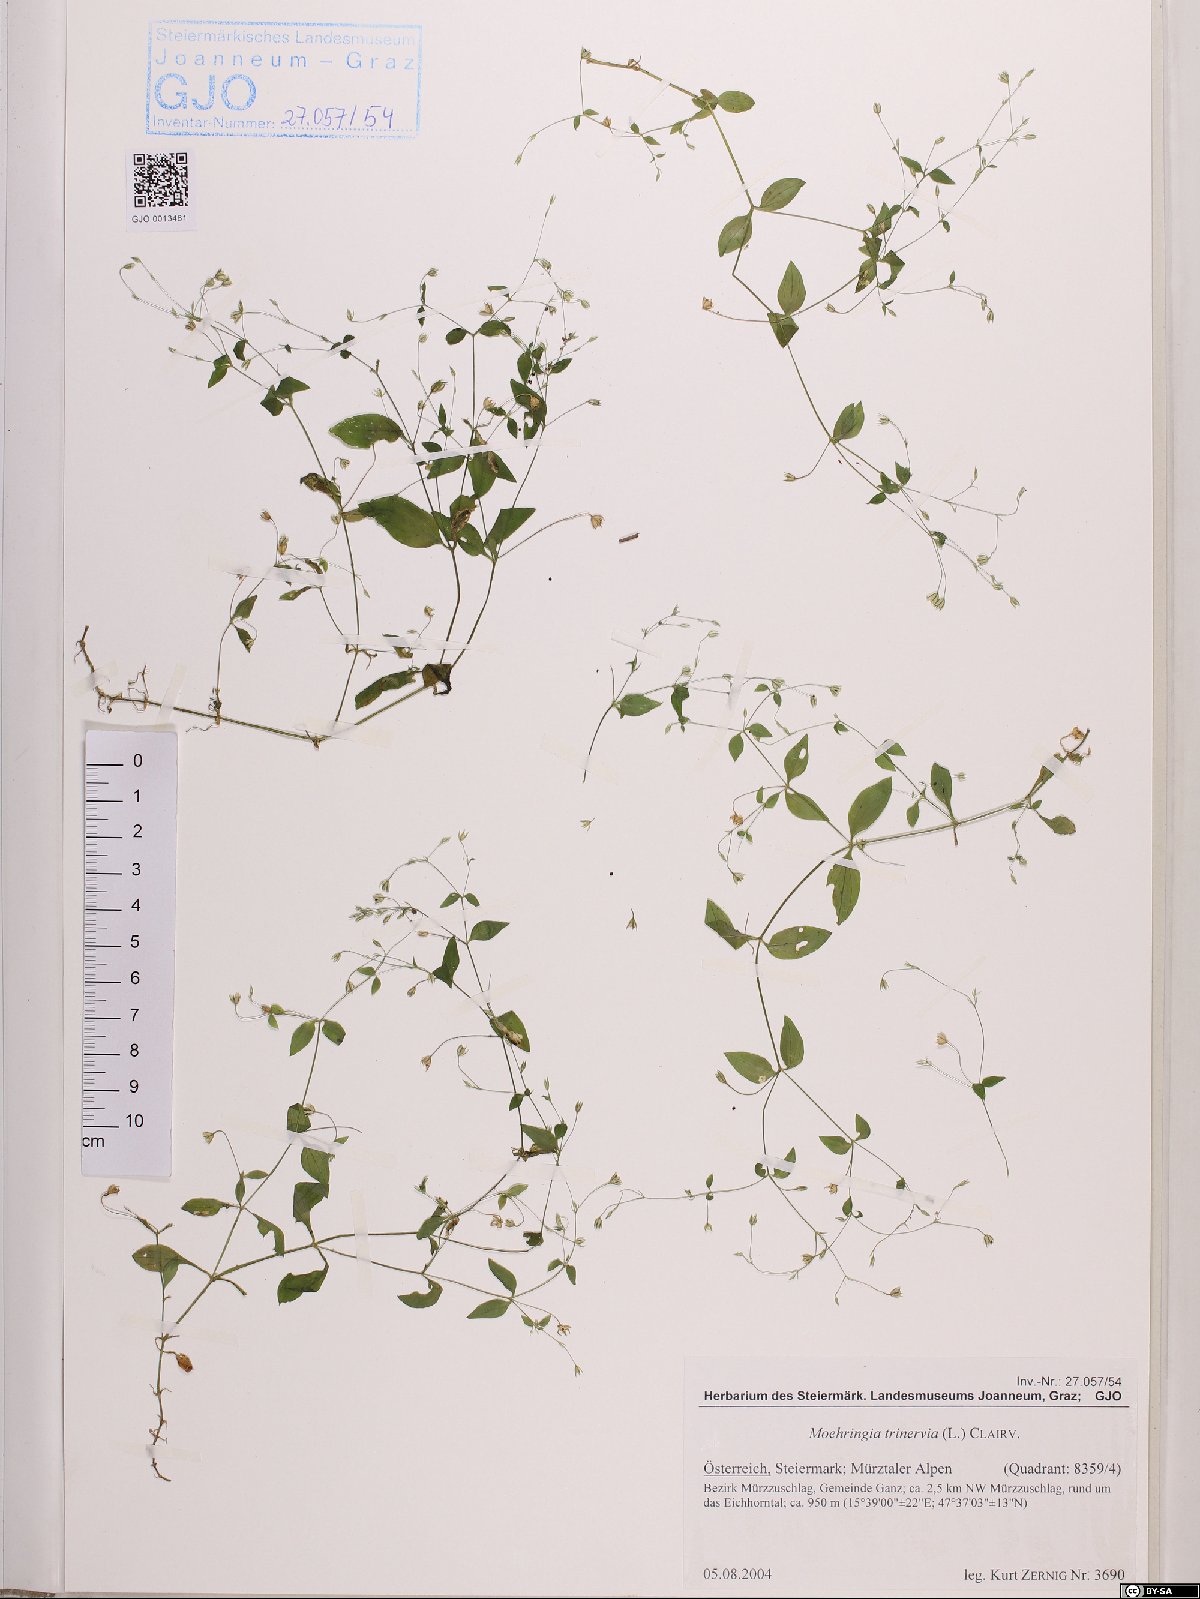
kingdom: Plantae
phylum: Tracheophyta
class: Magnoliopsida
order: Caryophyllales
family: Caryophyllaceae
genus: Moehringia
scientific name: Moehringia trinervia
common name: Three-nerved sandwort
